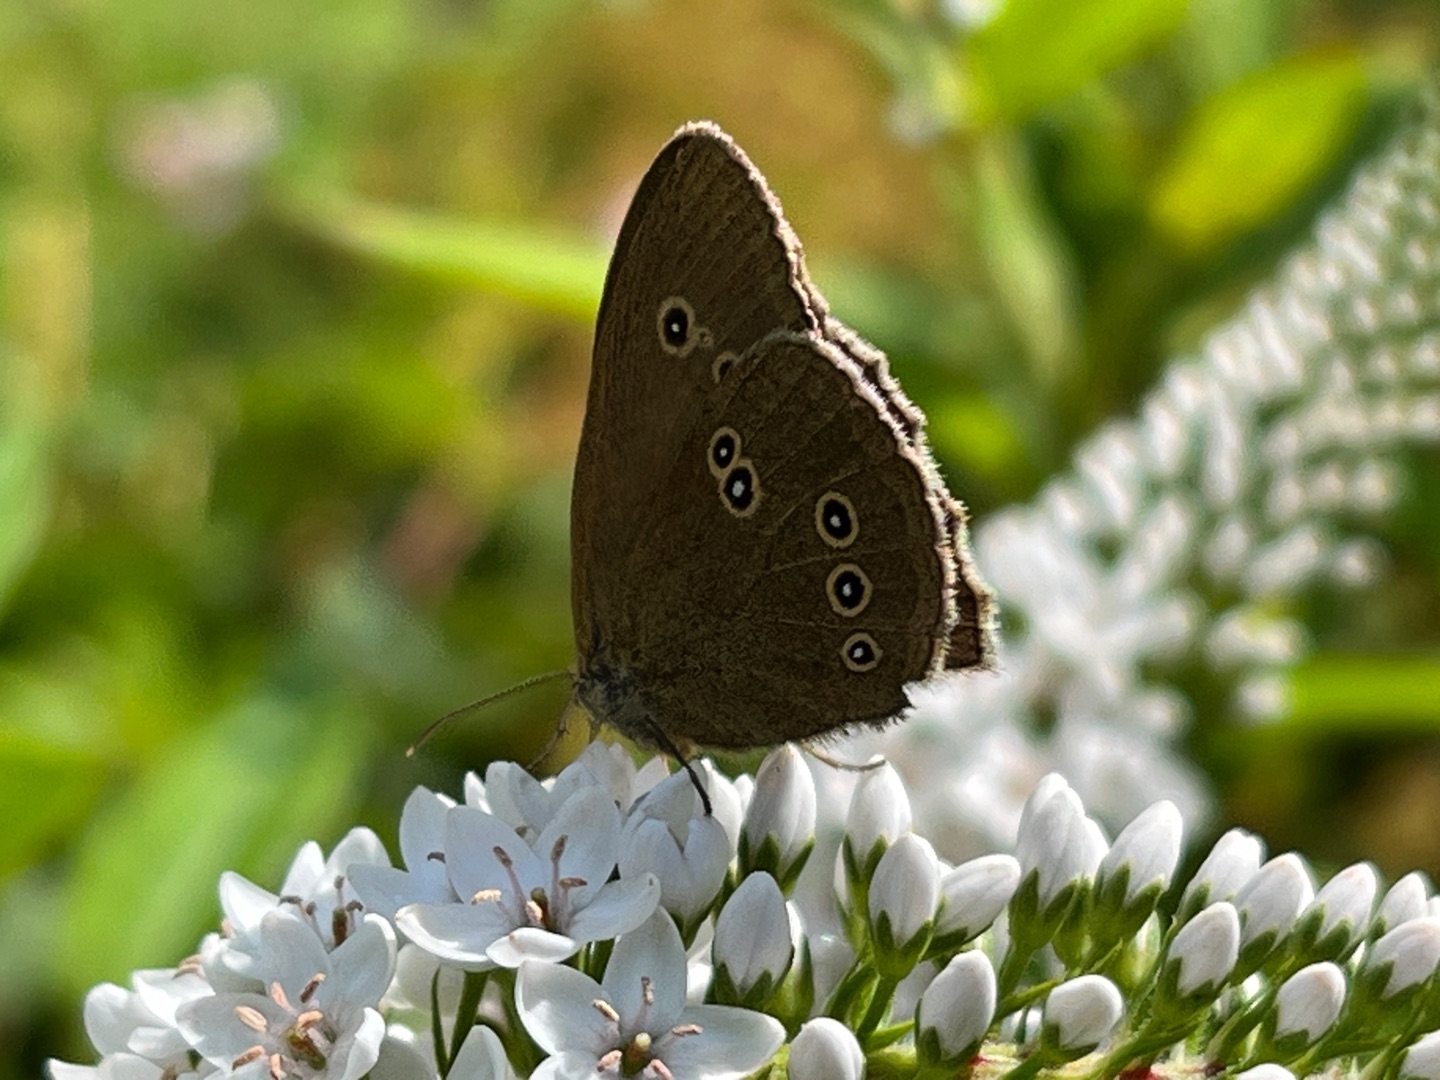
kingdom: Animalia
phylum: Arthropoda
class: Insecta
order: Lepidoptera
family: Nymphalidae
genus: Aphantopus
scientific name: Aphantopus hyperantus
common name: Engrandøje
